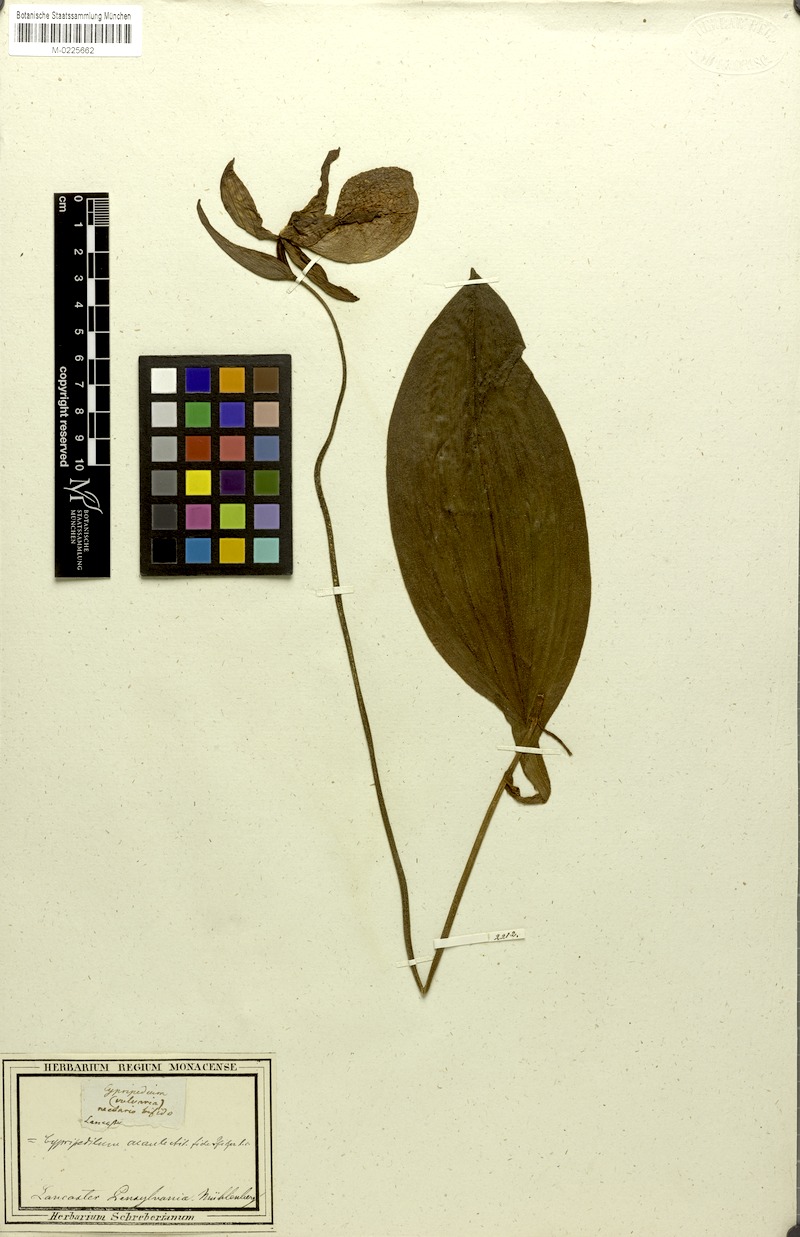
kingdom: Plantae
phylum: Tracheophyta
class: Liliopsida
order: Asparagales
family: Orchidaceae
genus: Cypripedium
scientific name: Cypripedium acaule
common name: Pink lady's-slipper
